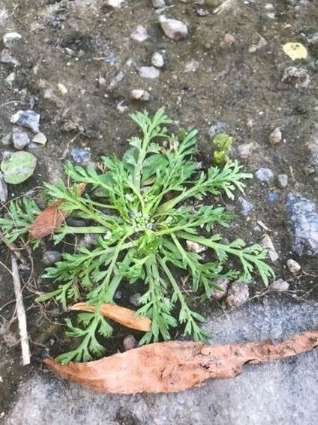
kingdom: Plantae
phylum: Tracheophyta
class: Magnoliopsida
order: Brassicales
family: Brassicaceae
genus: Lepidium
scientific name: Lepidium coronopus
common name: Ravnefod
